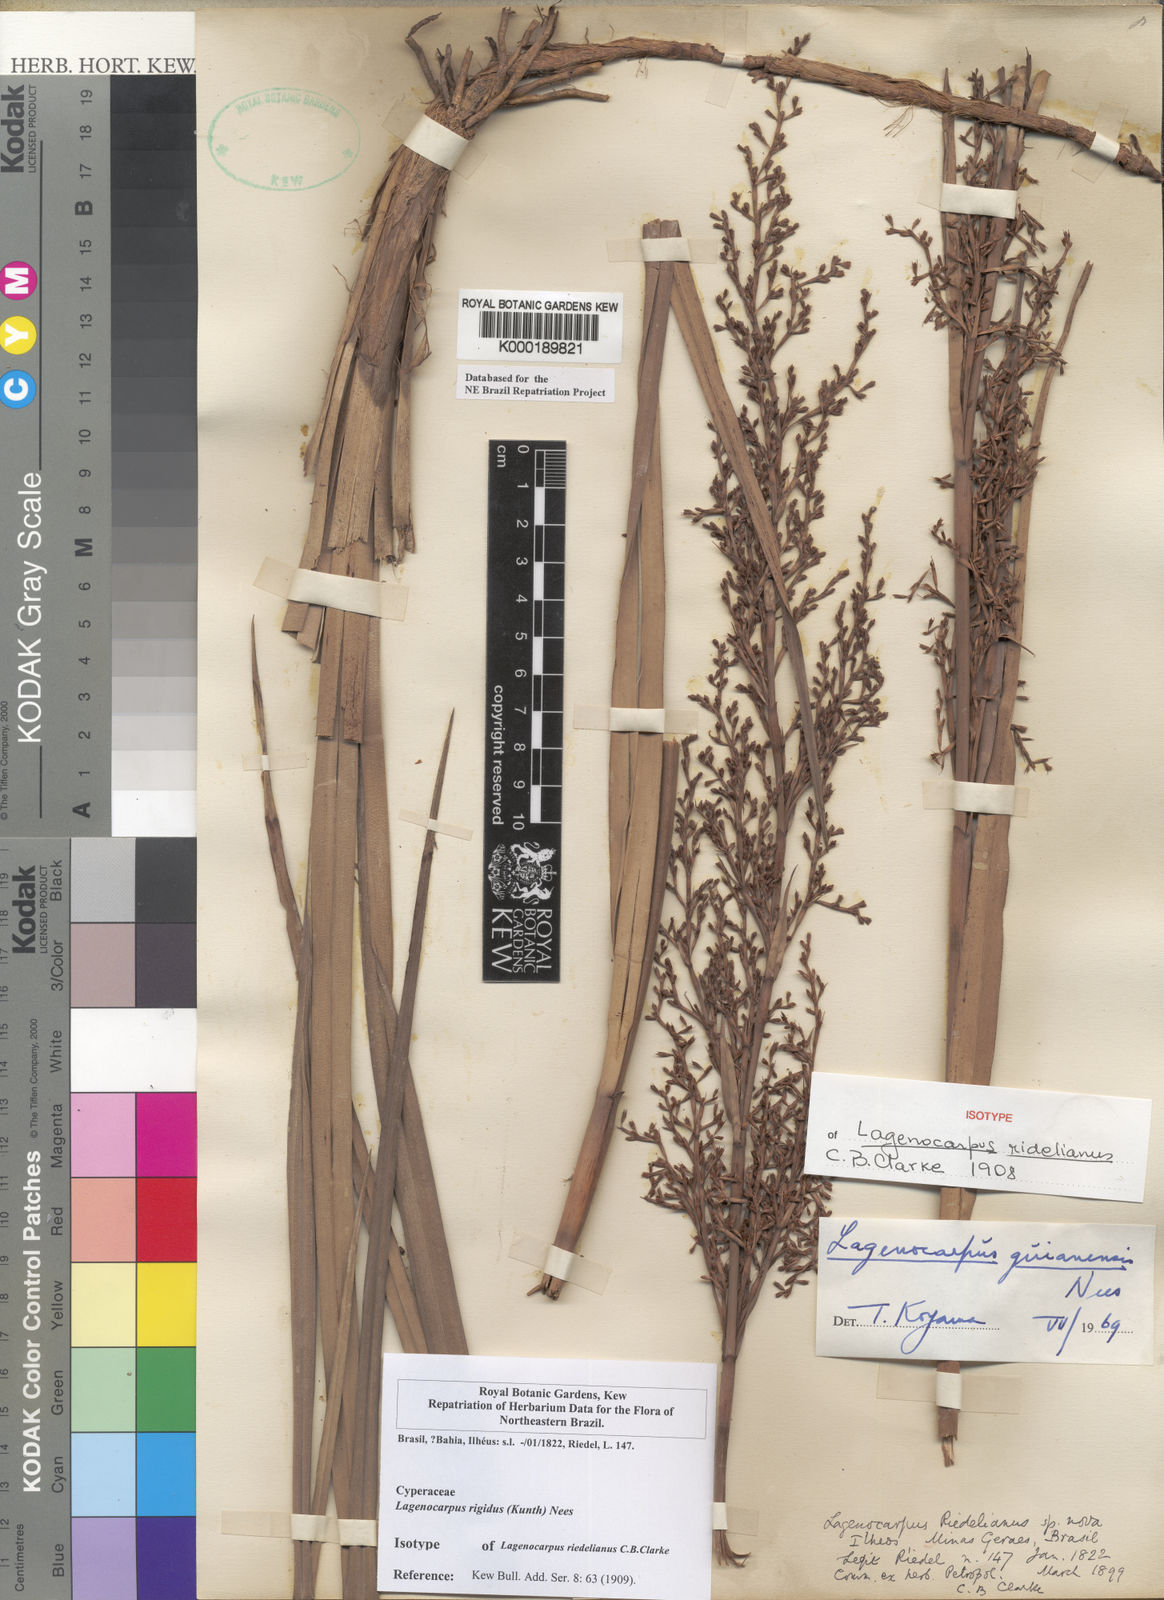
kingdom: Plantae
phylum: Tracheophyta
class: Liliopsida
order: Poales
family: Cyperaceae
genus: Lagenocarpus
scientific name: Lagenocarpus guianensis
